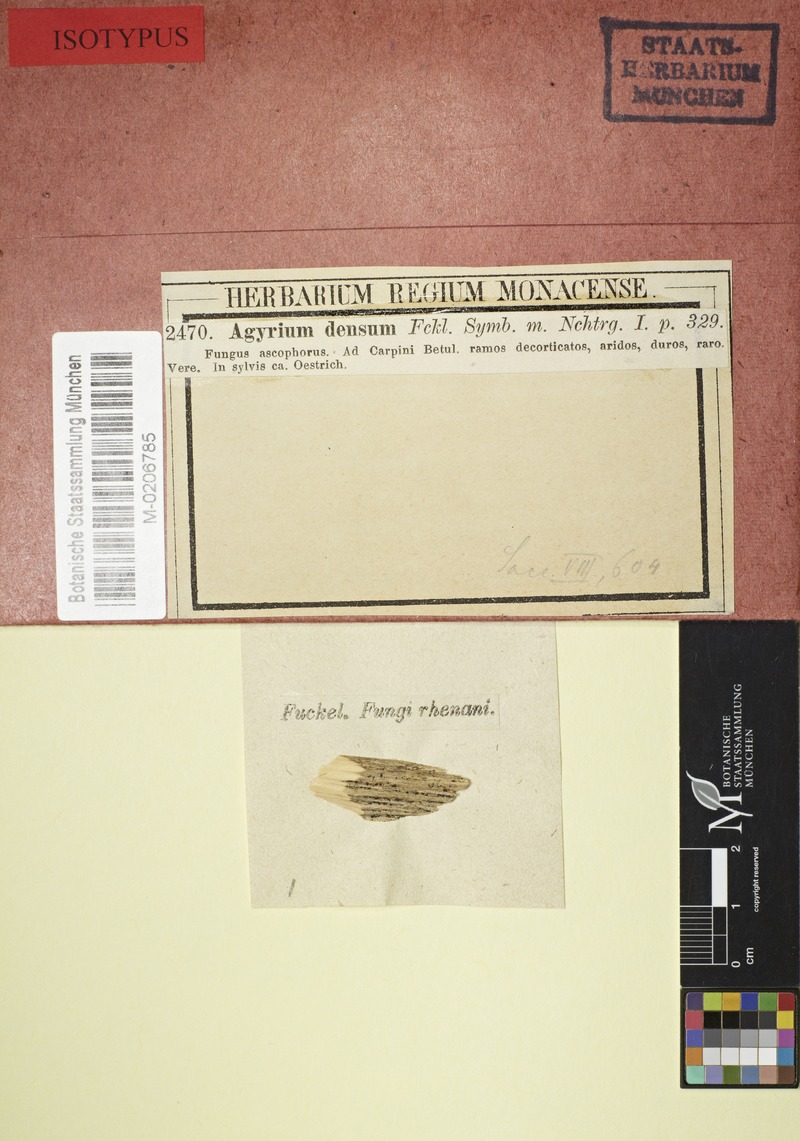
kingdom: Fungi
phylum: Ascomycota
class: Leotiomycetes
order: Chaetomellales
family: Marthamycetaceae
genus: Mellitiosporiella
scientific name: Mellitiosporiella densa
